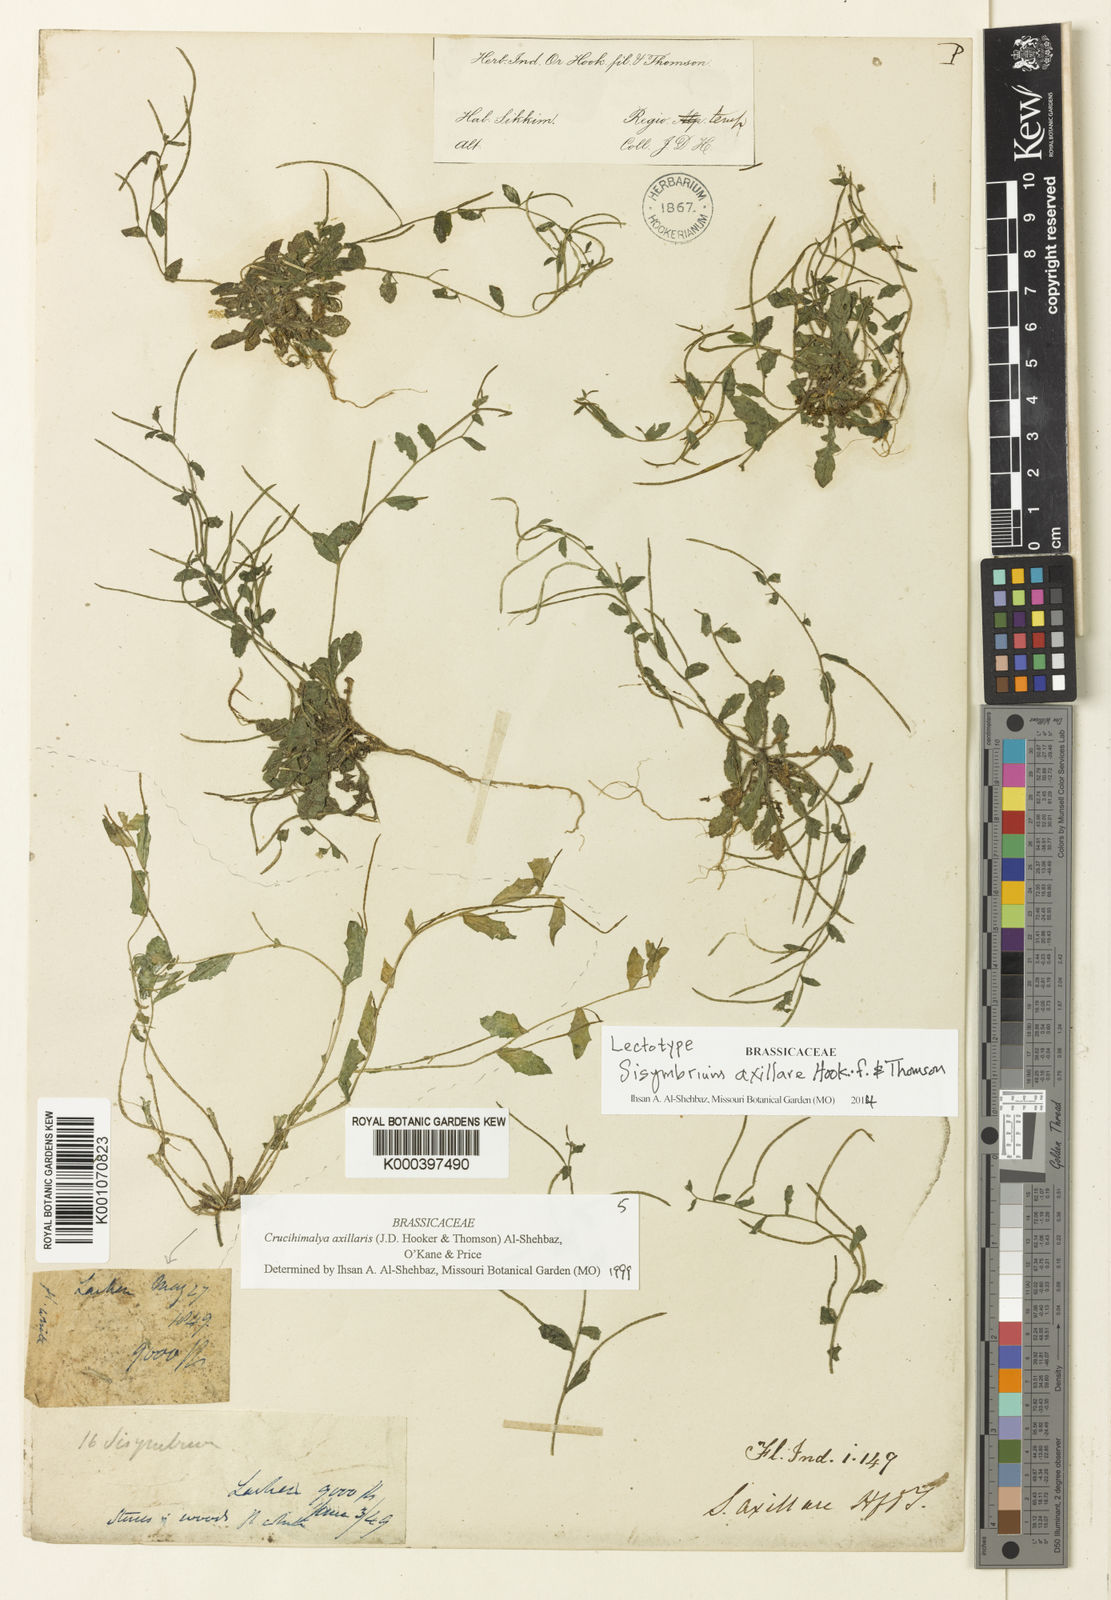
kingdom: Plantae
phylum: Tracheophyta
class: Magnoliopsida
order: Brassicales
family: Brassicaceae
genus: Crucihimalaya
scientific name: Crucihimalaya axillaris
